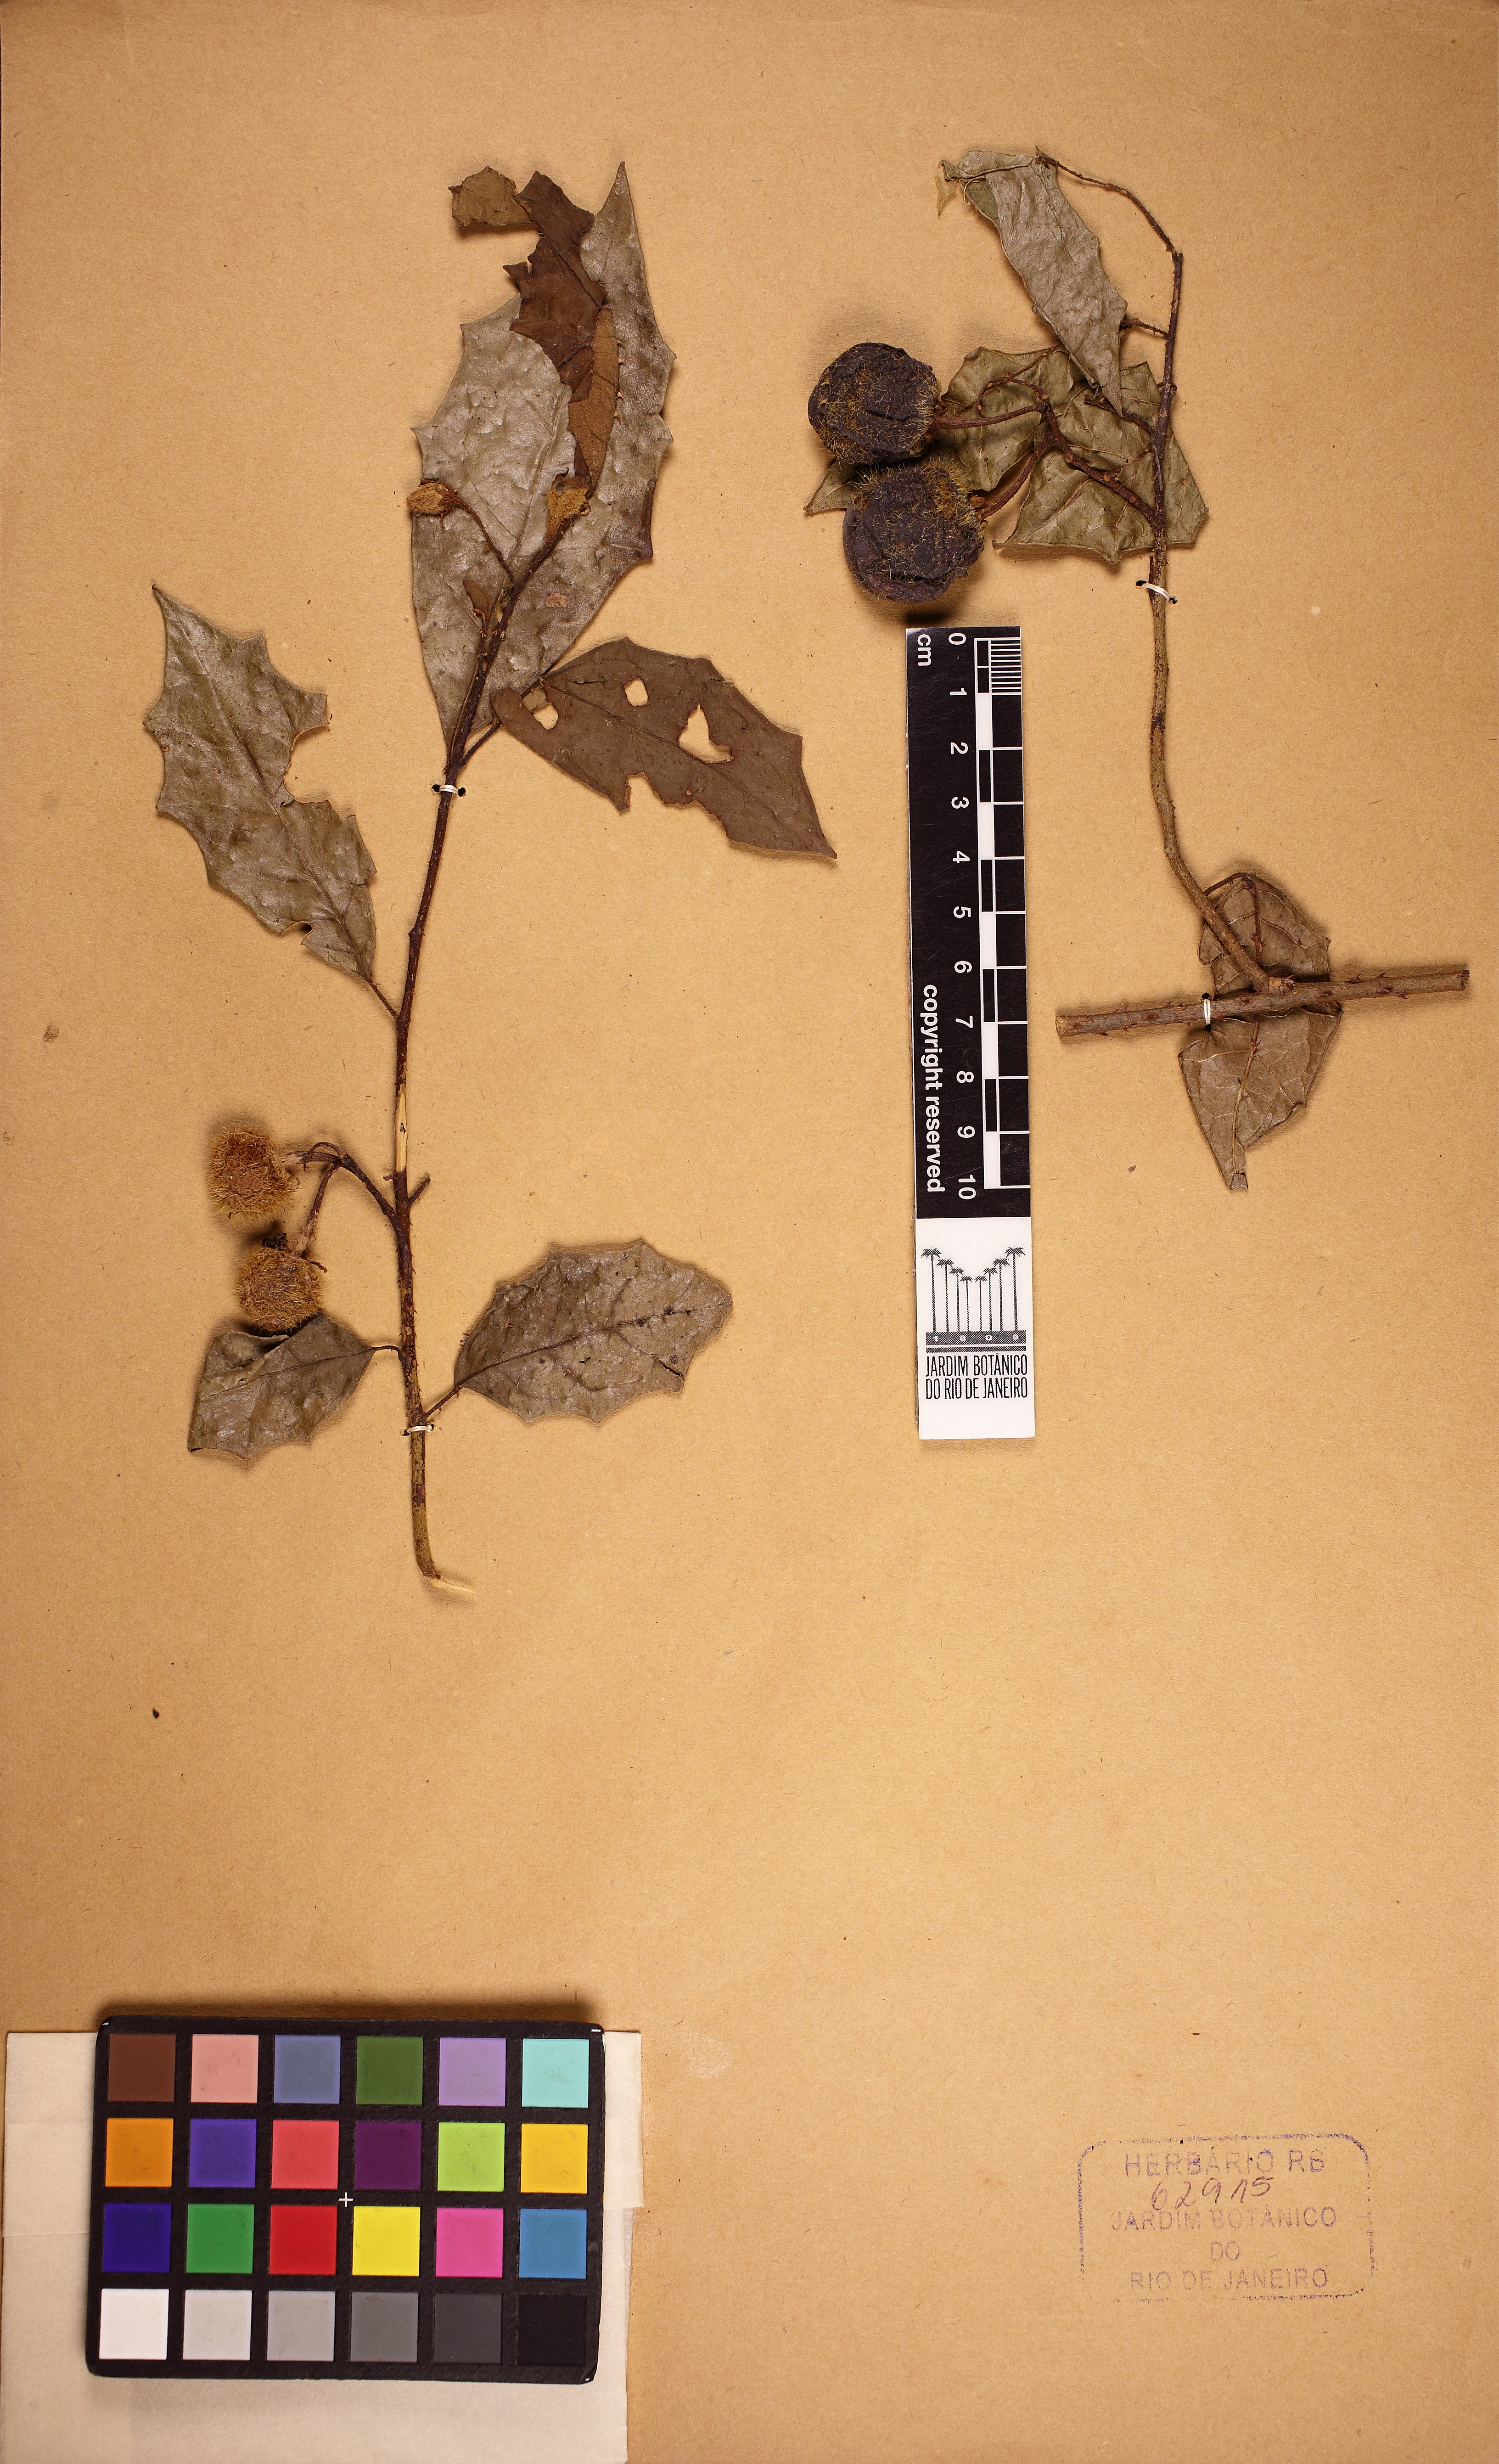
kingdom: Plantae
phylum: Tracheophyta
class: Magnoliopsida
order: Solanales
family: Solanaceae
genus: Solanum
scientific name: Solanum rupincola
